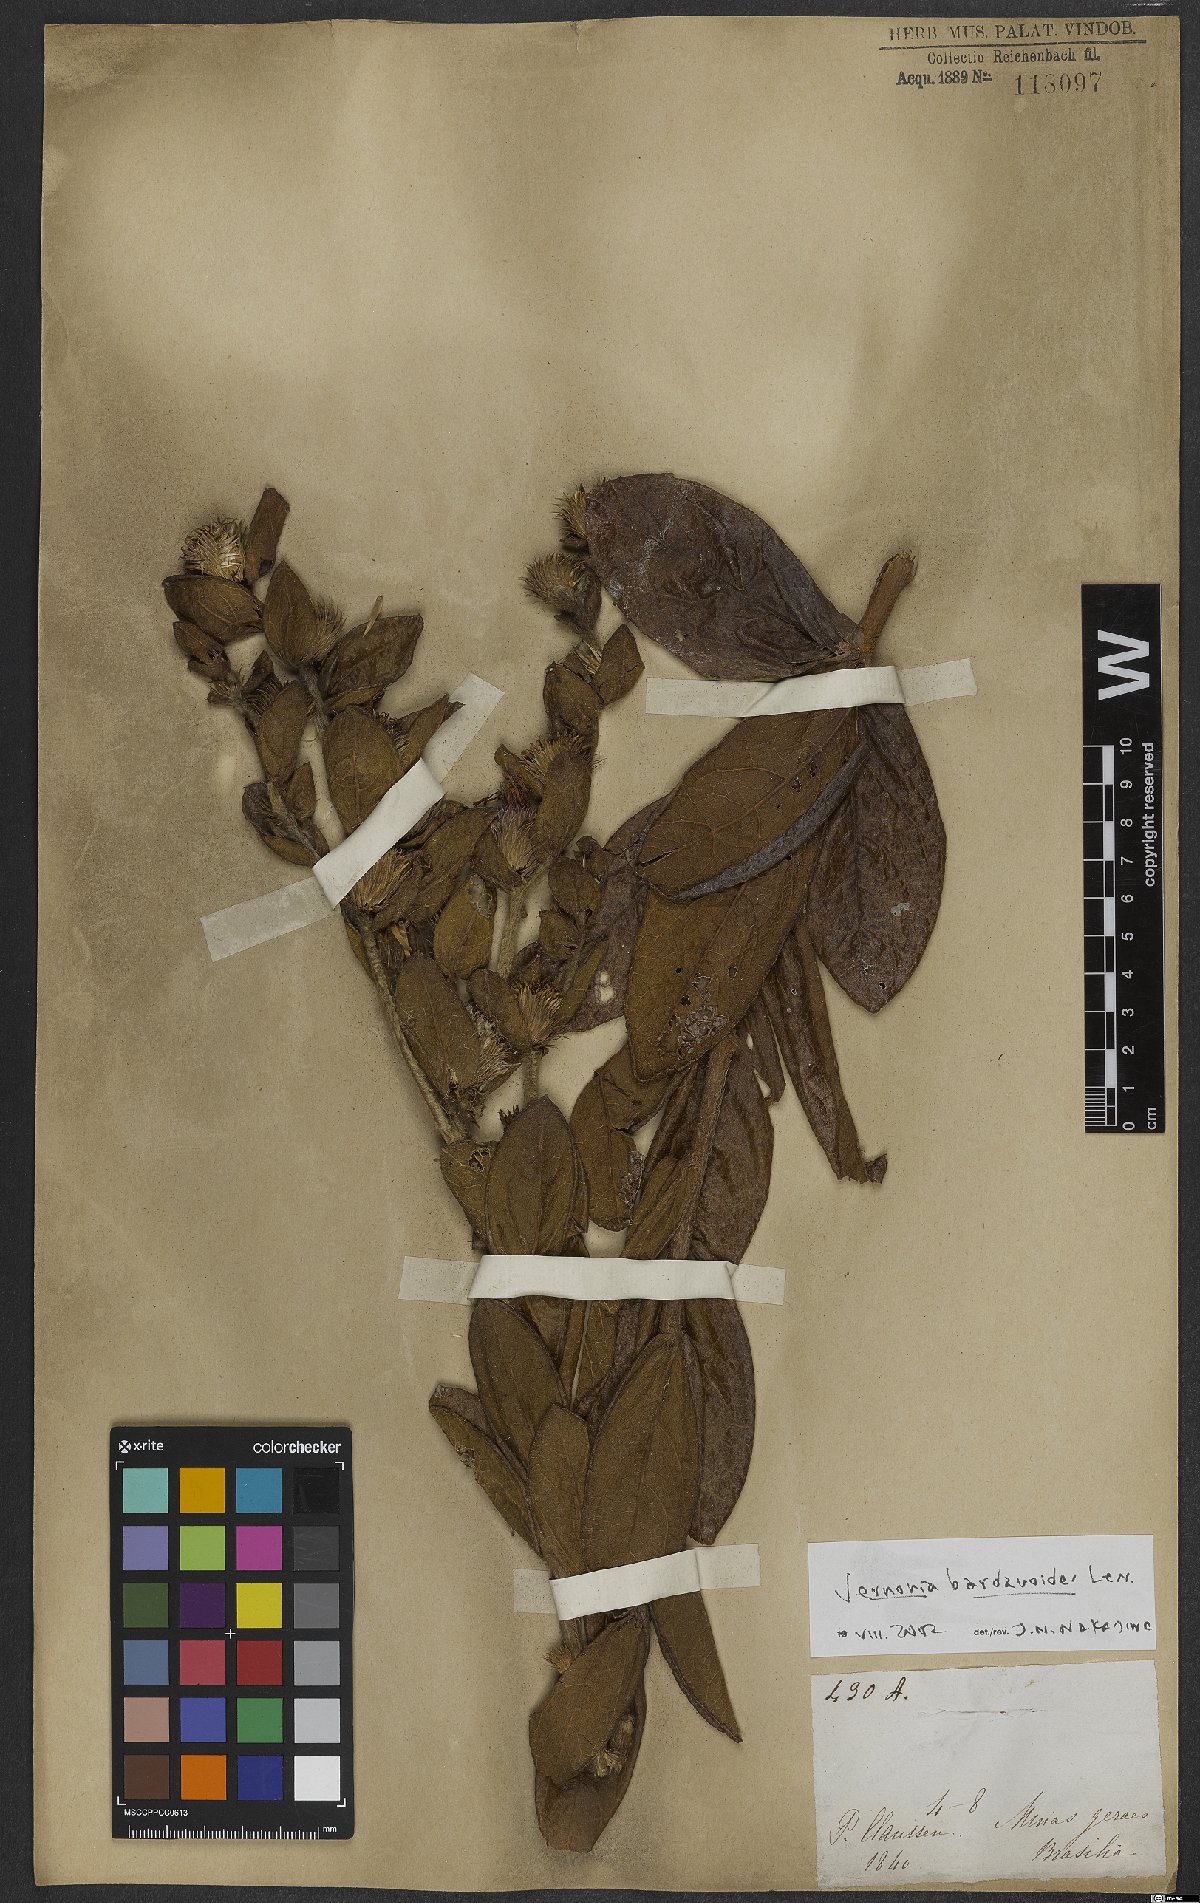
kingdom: Plantae
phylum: Tracheophyta
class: Magnoliopsida
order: Asterales
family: Asteraceae
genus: Lessingianthus
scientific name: Lessingianthus bardanioides
